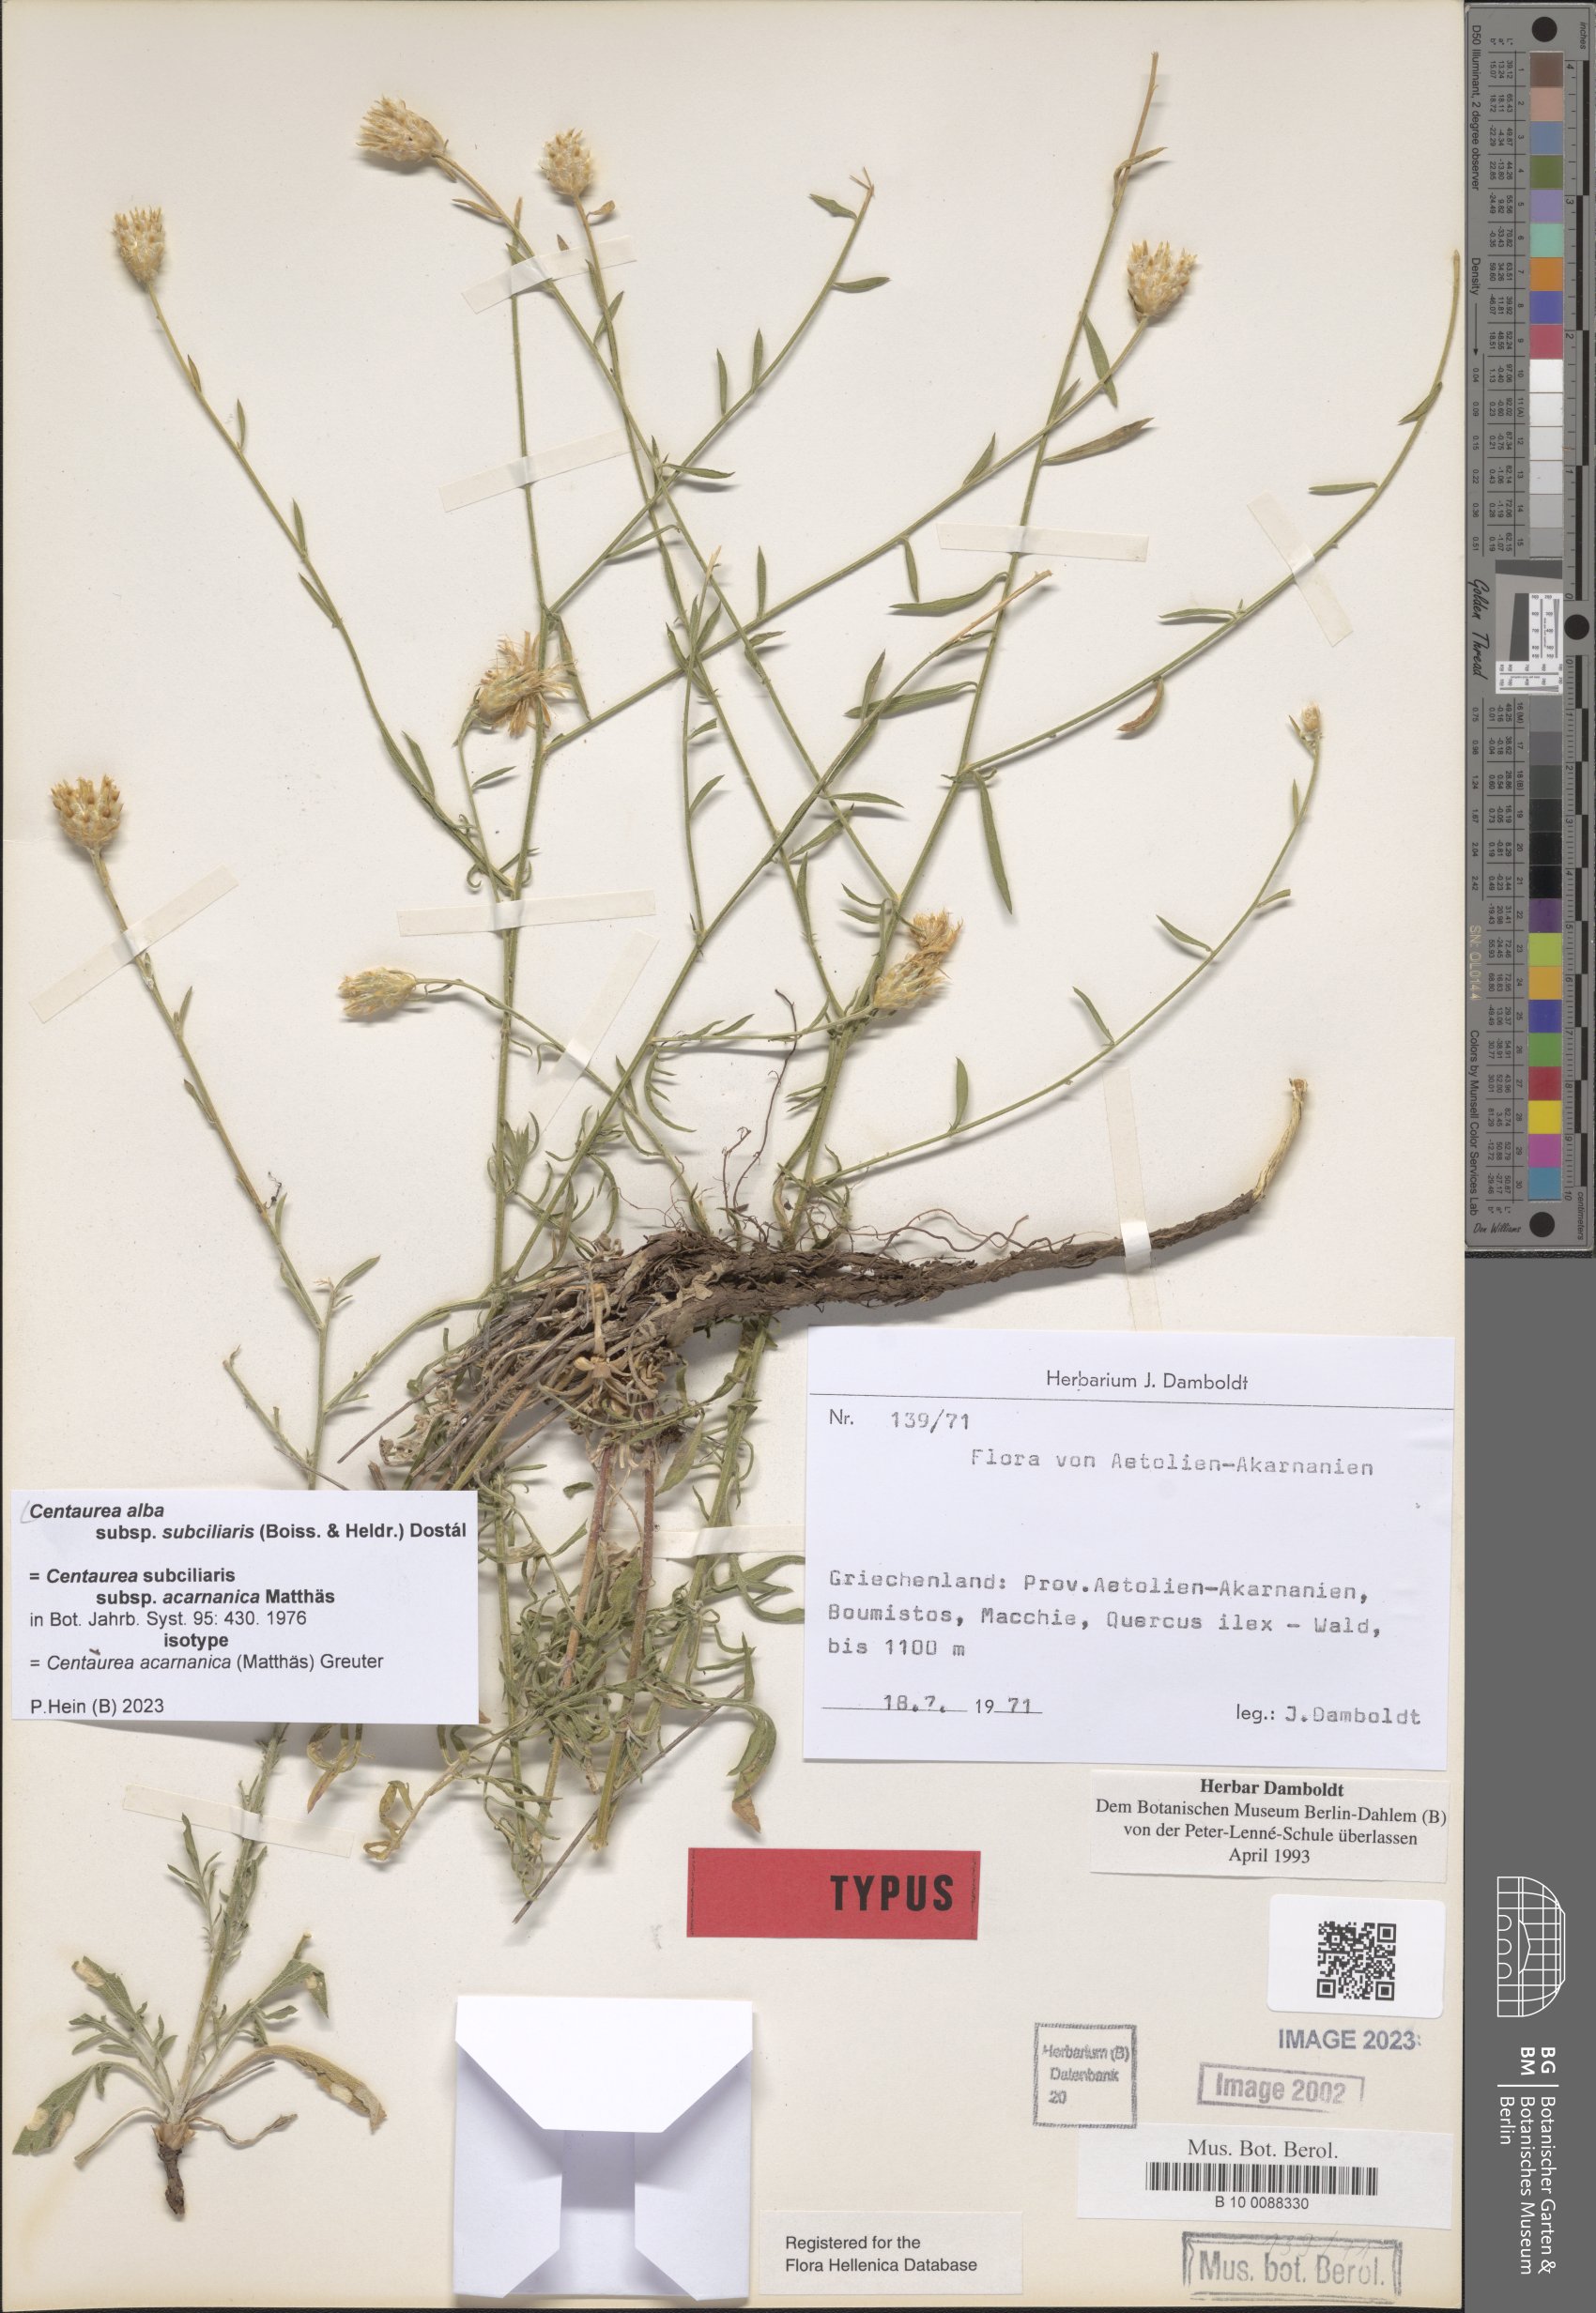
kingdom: Plantae
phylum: Tracheophyta
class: Magnoliopsida
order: Asterales
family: Asteraceae
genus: Centaurea
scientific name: Centaurea subciliaris
